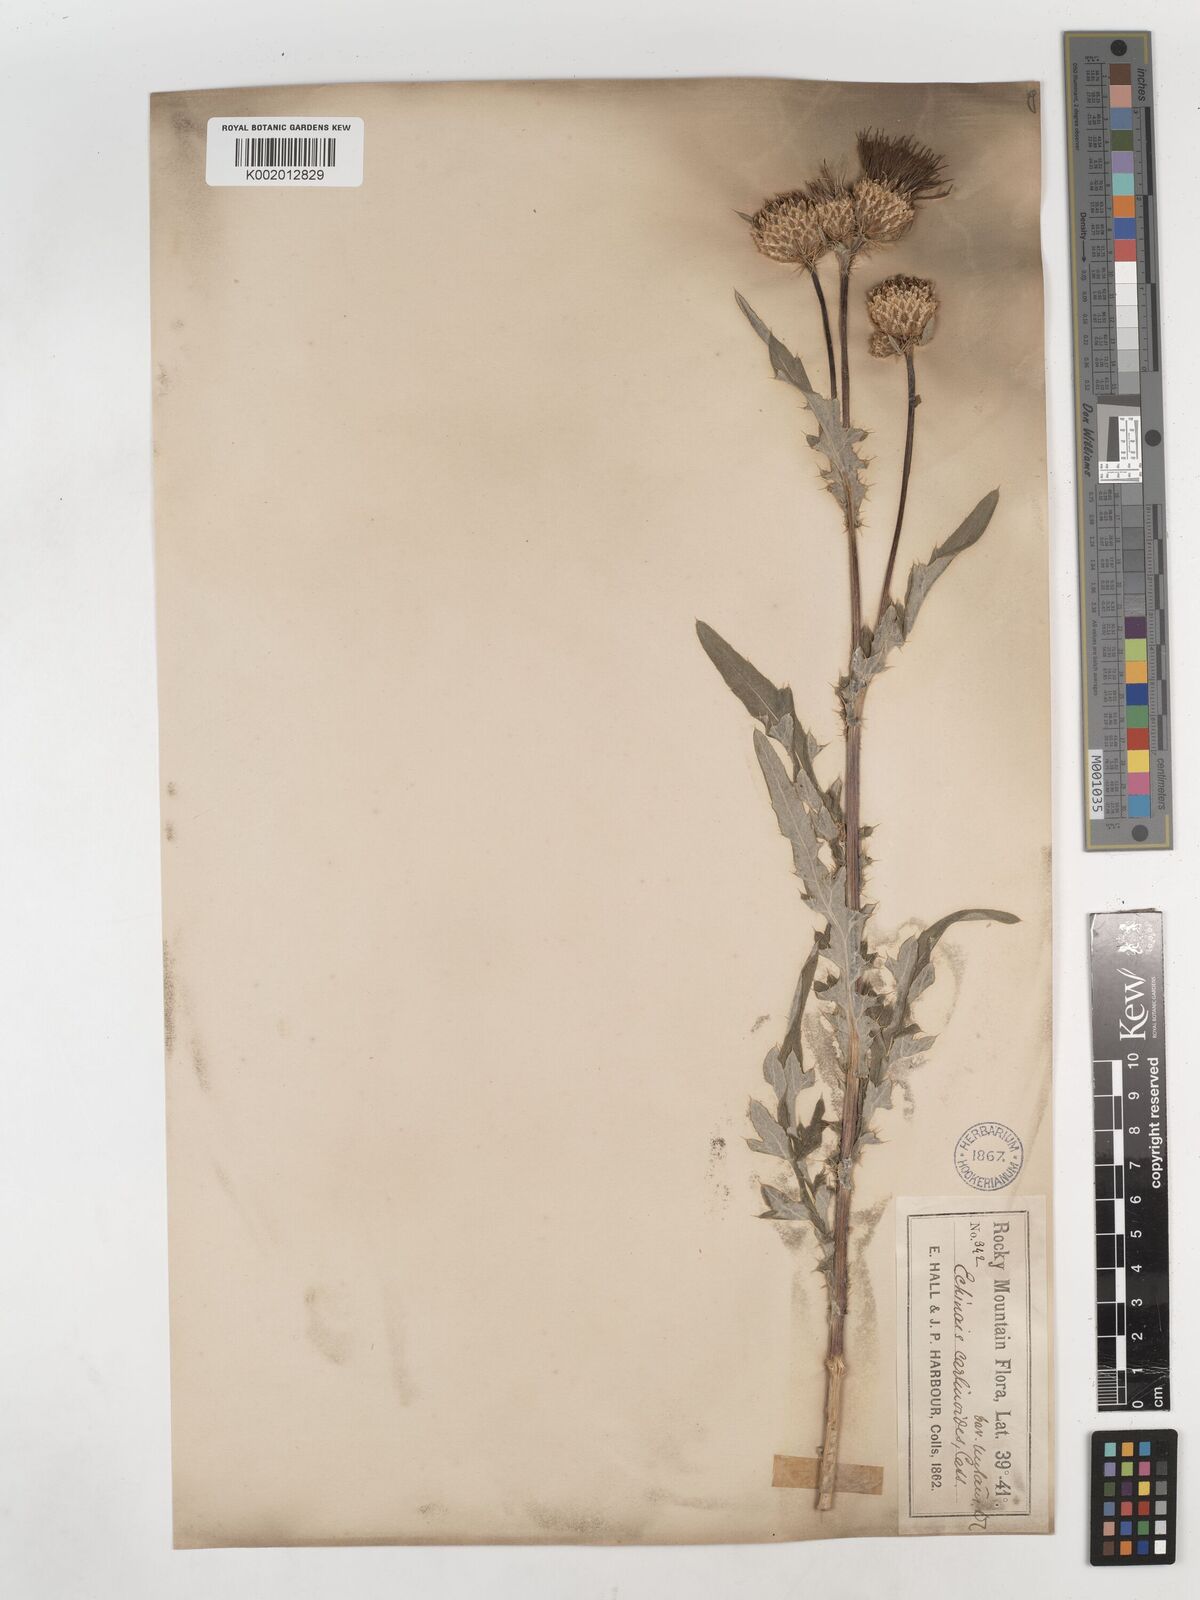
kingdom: Plantae
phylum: Tracheophyta
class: Magnoliopsida
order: Asterales
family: Asteraceae
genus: Cirsium
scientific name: Cirsium tioganum
